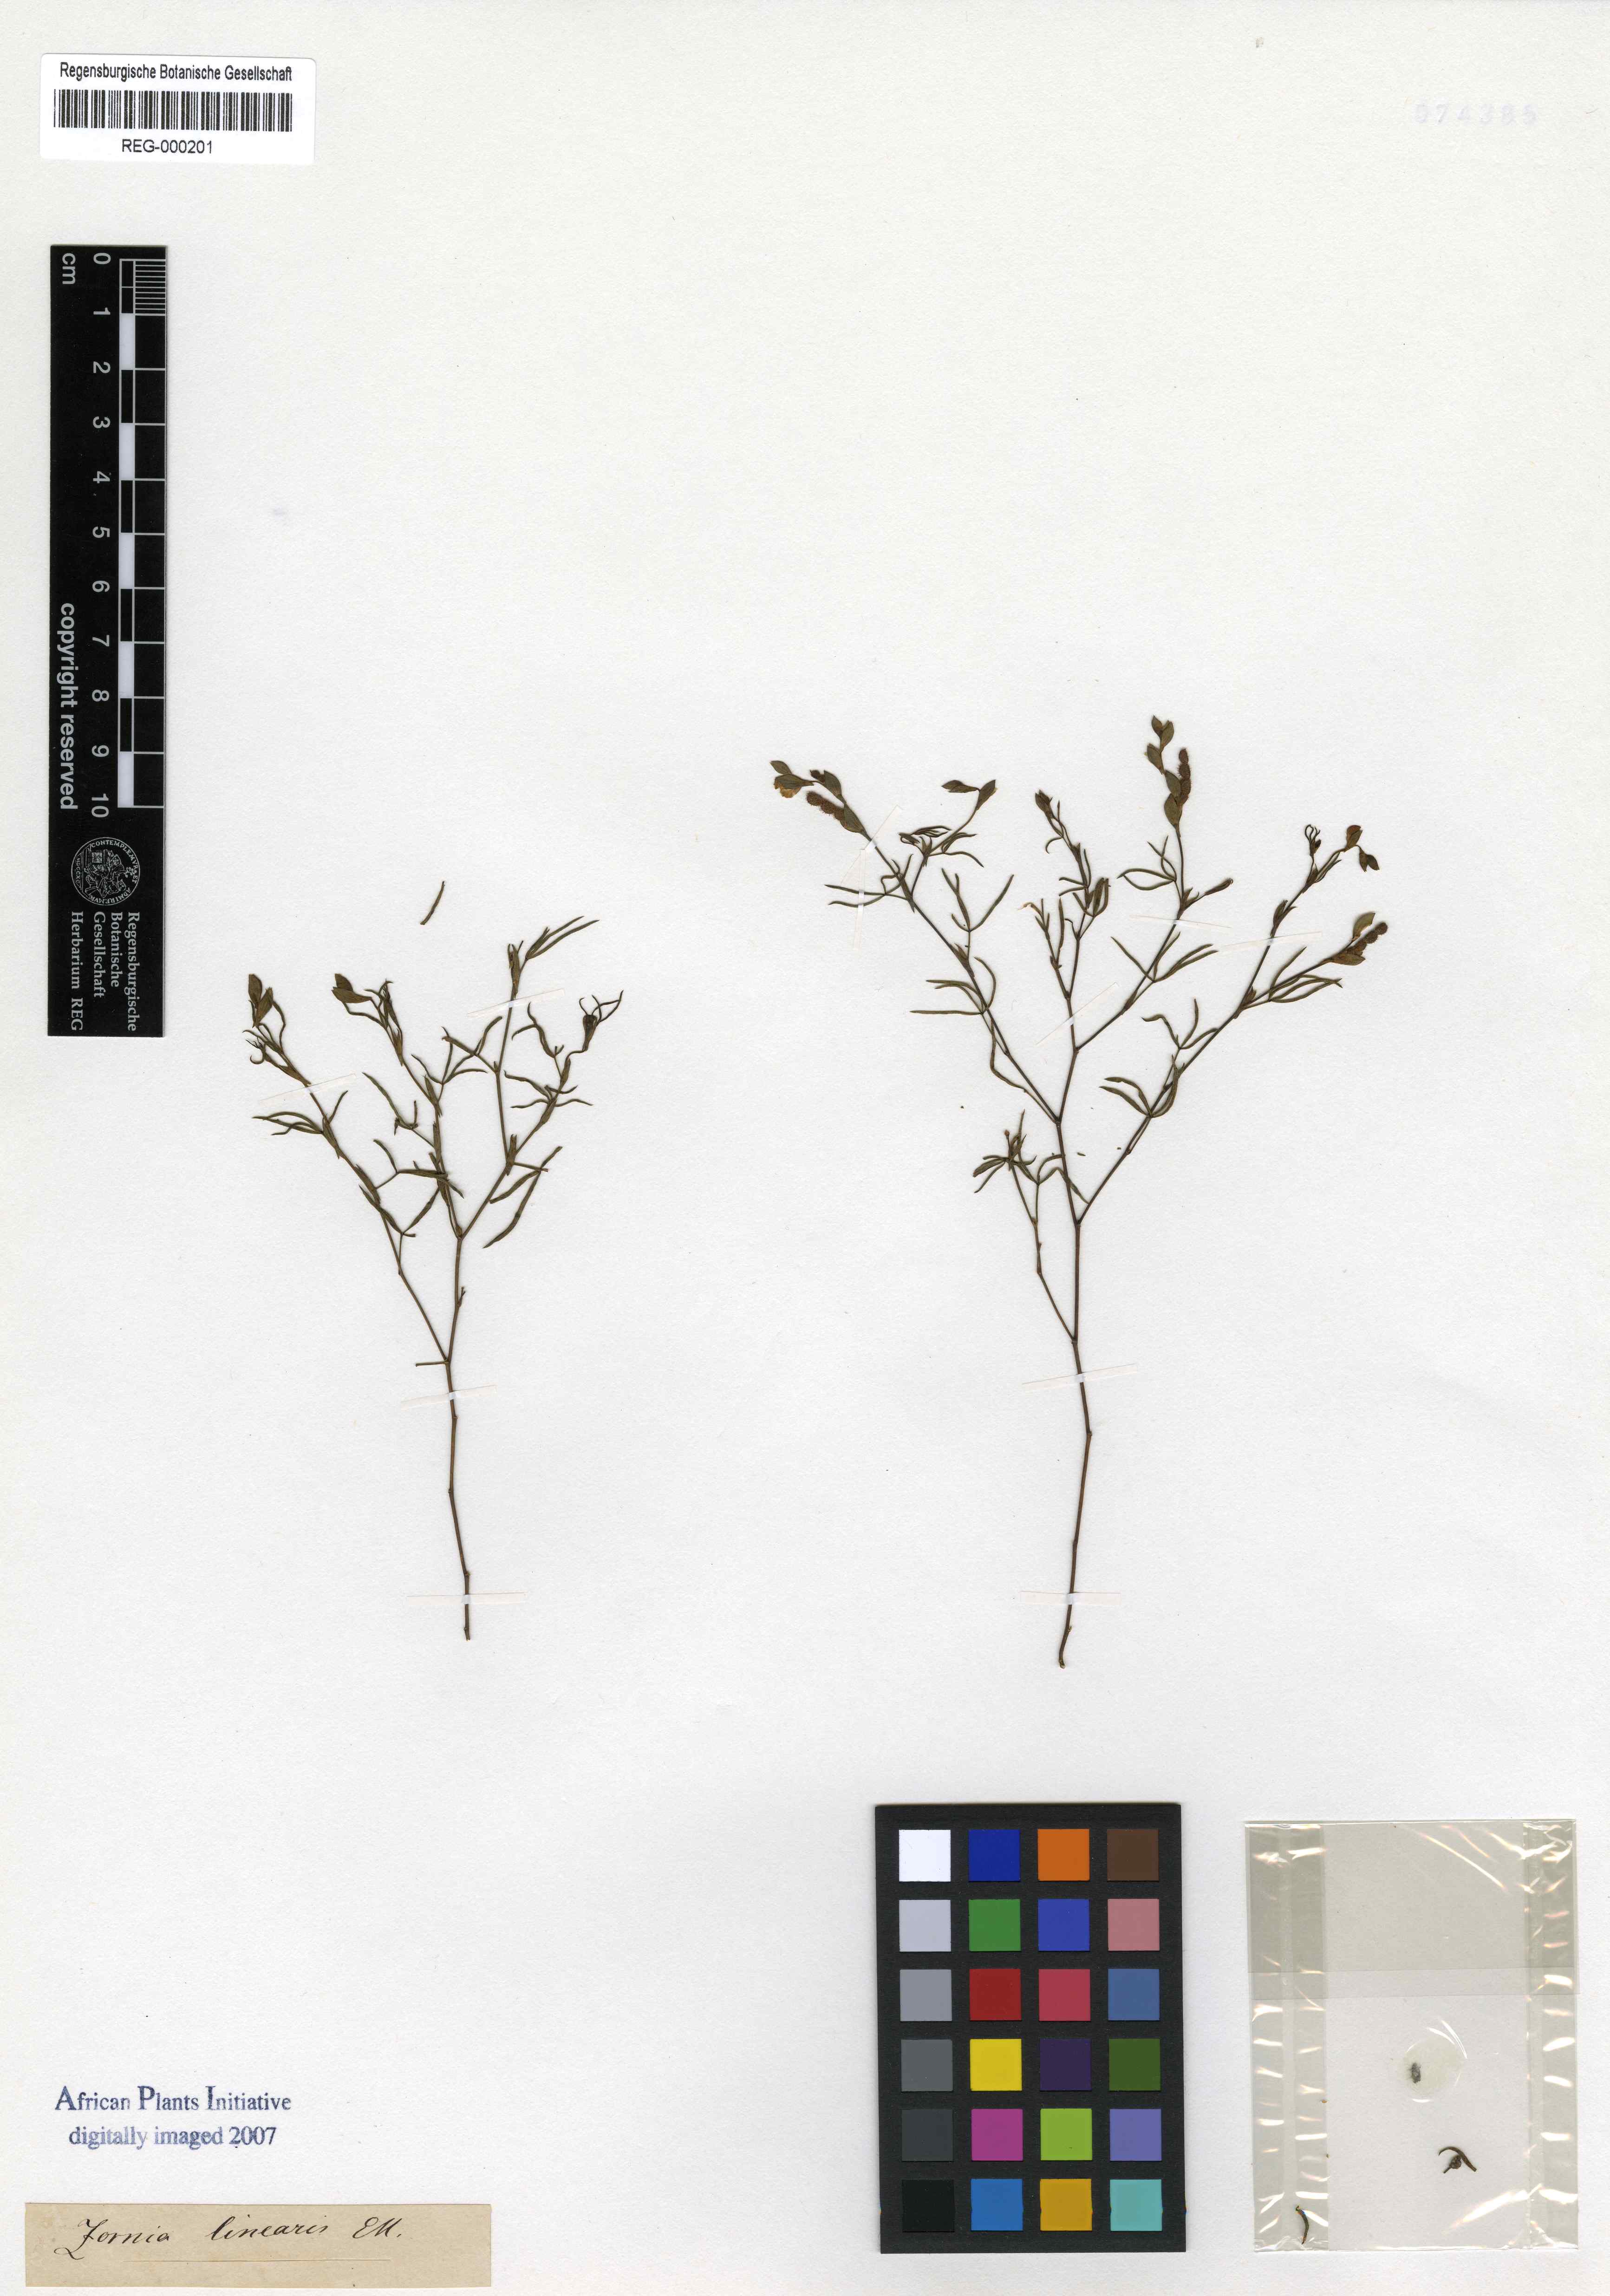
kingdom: Plantae
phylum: Tracheophyta
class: Magnoliopsida
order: Fabales
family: Fabaceae
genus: Zornia
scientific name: Zornia linearis
